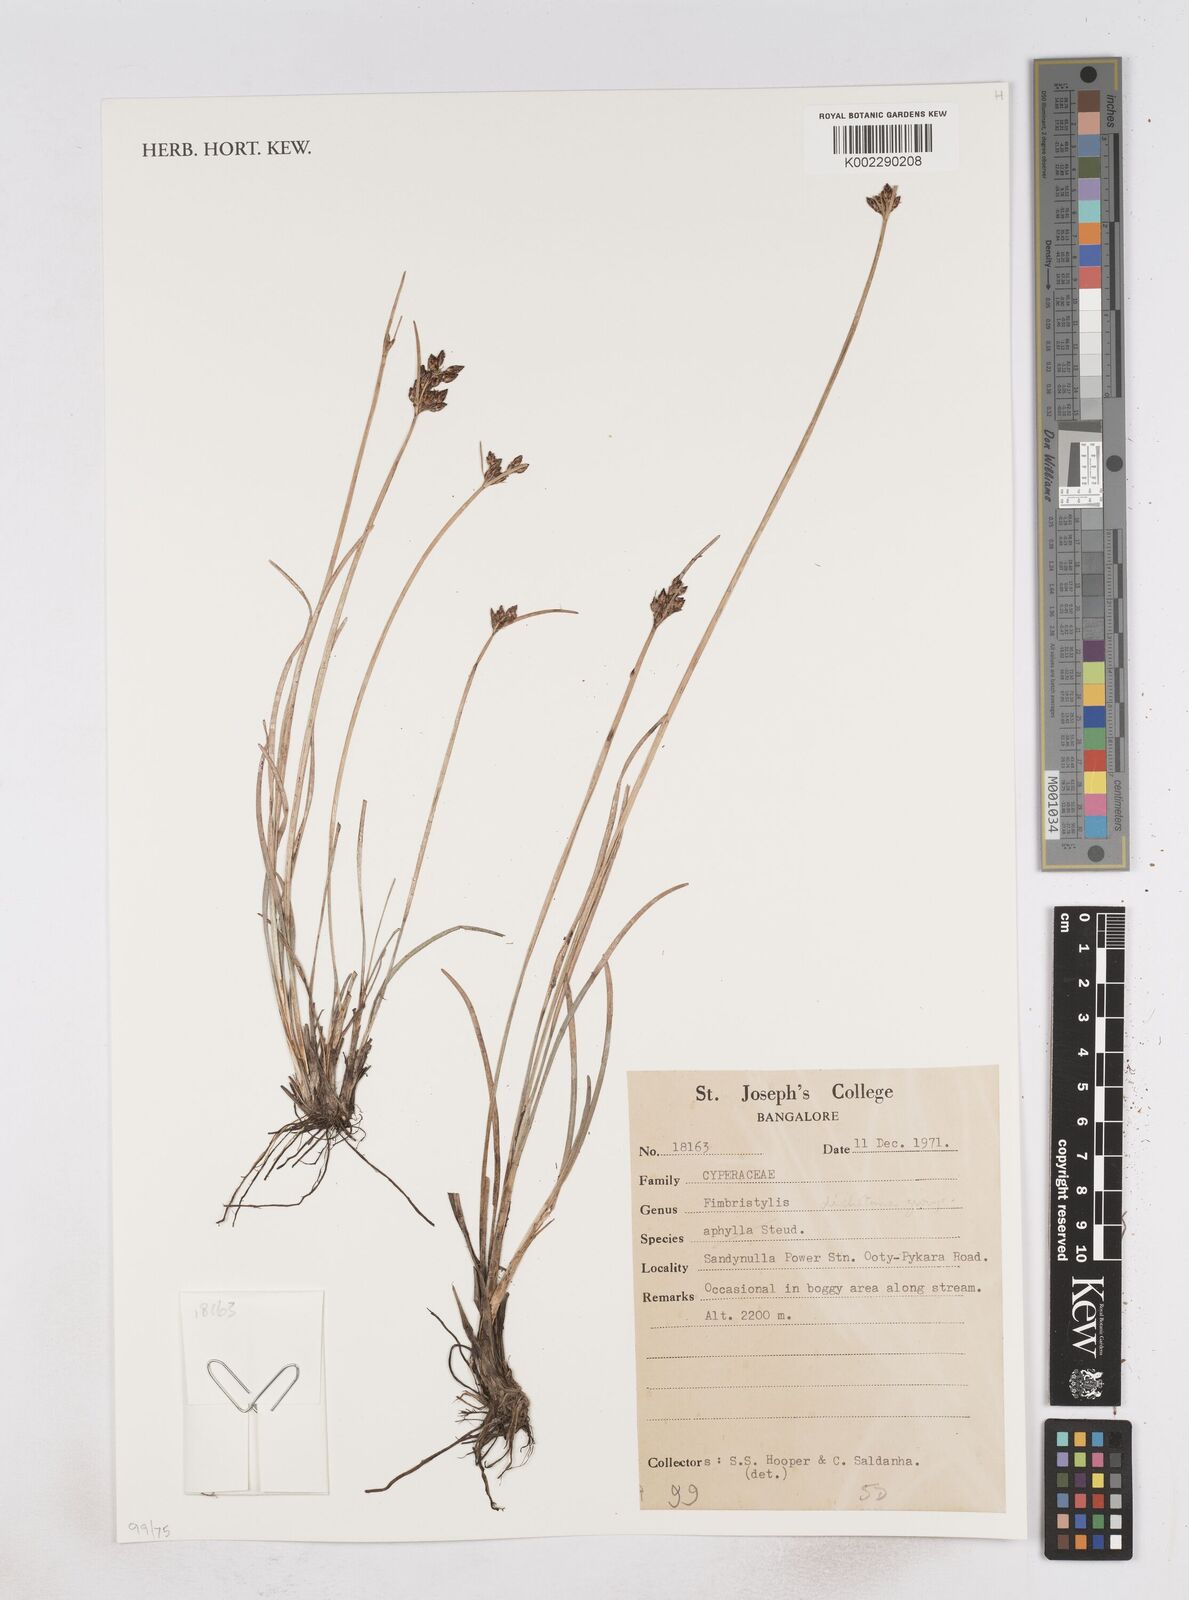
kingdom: Plantae
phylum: Tracheophyta
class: Liliopsida
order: Poales
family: Cyperaceae
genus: Fimbristylis
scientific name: Fimbristylis
